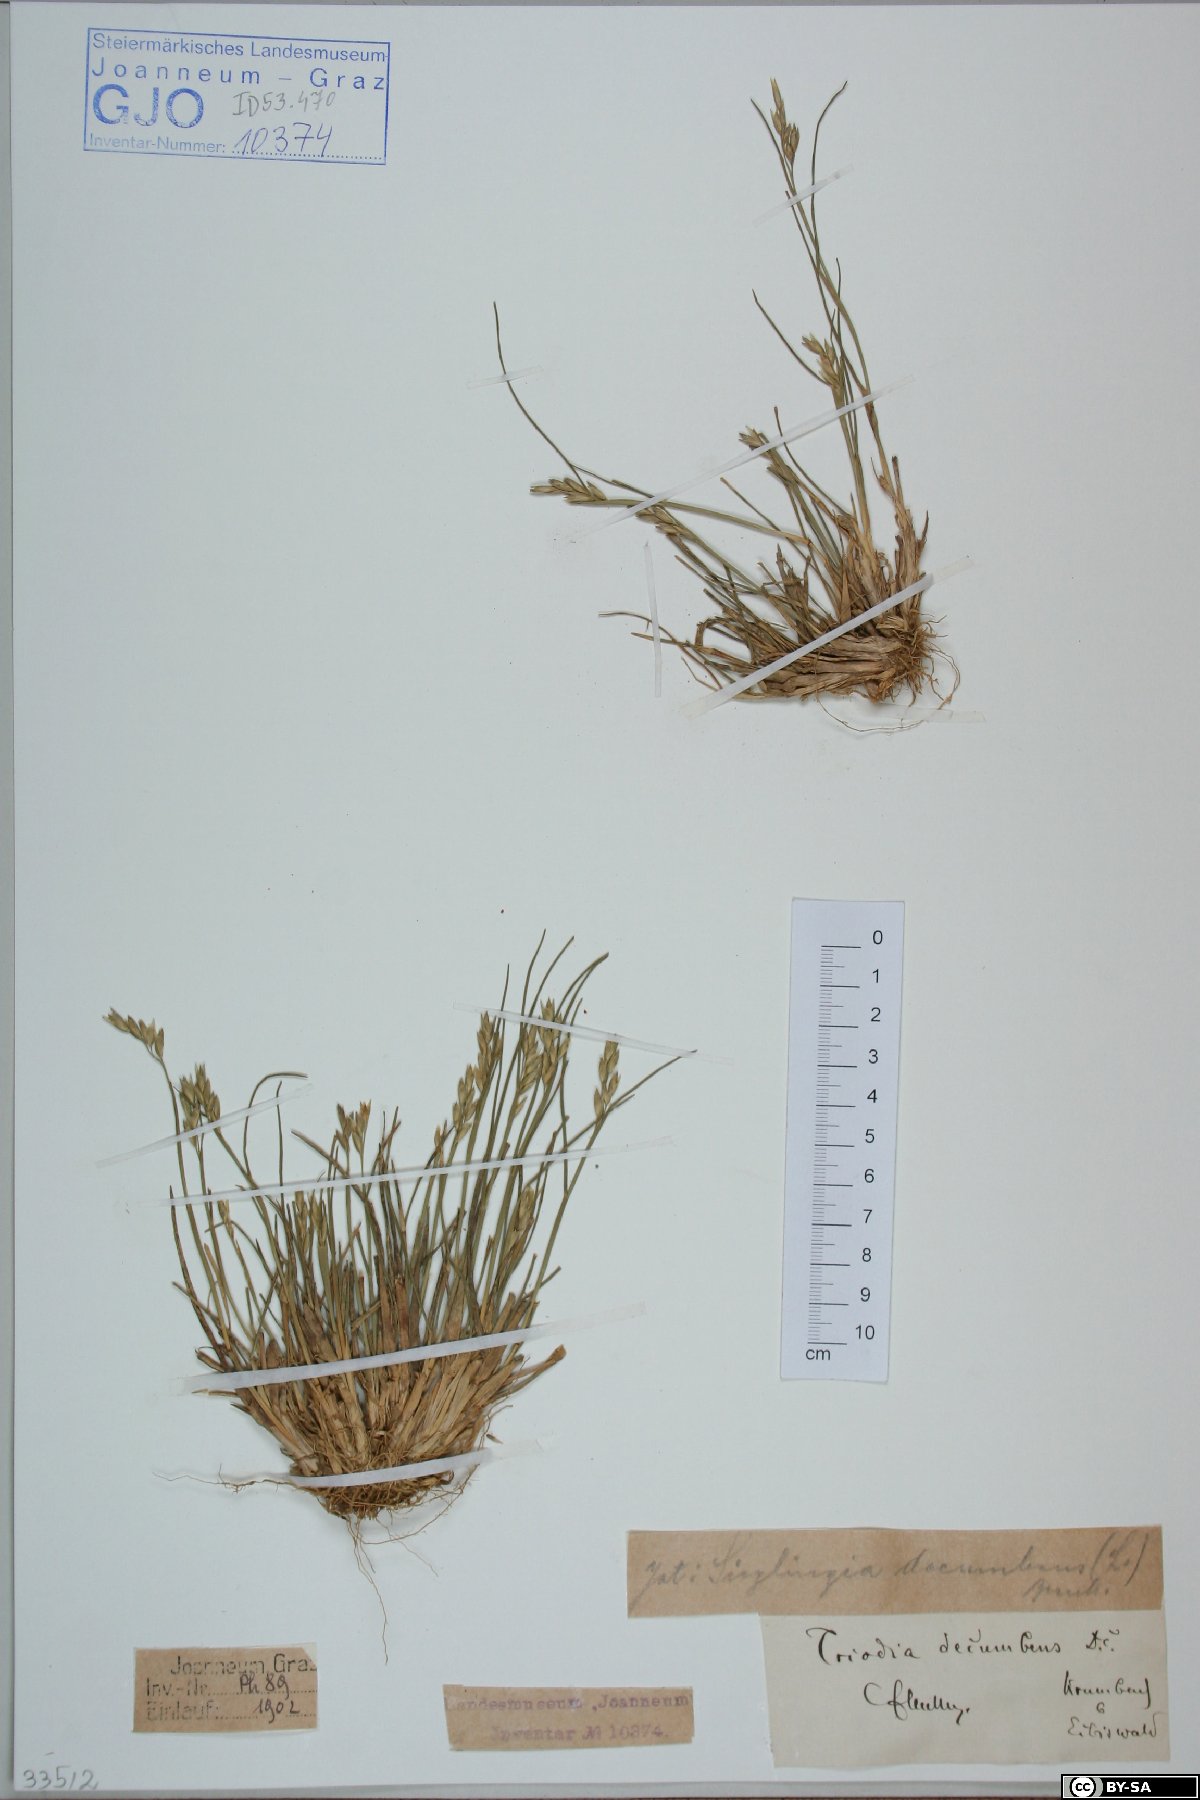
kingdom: Plantae
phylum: Tracheophyta
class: Liliopsida
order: Poales
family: Poaceae
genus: Danthonia
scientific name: Danthonia decumbens
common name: Common heathgrass
